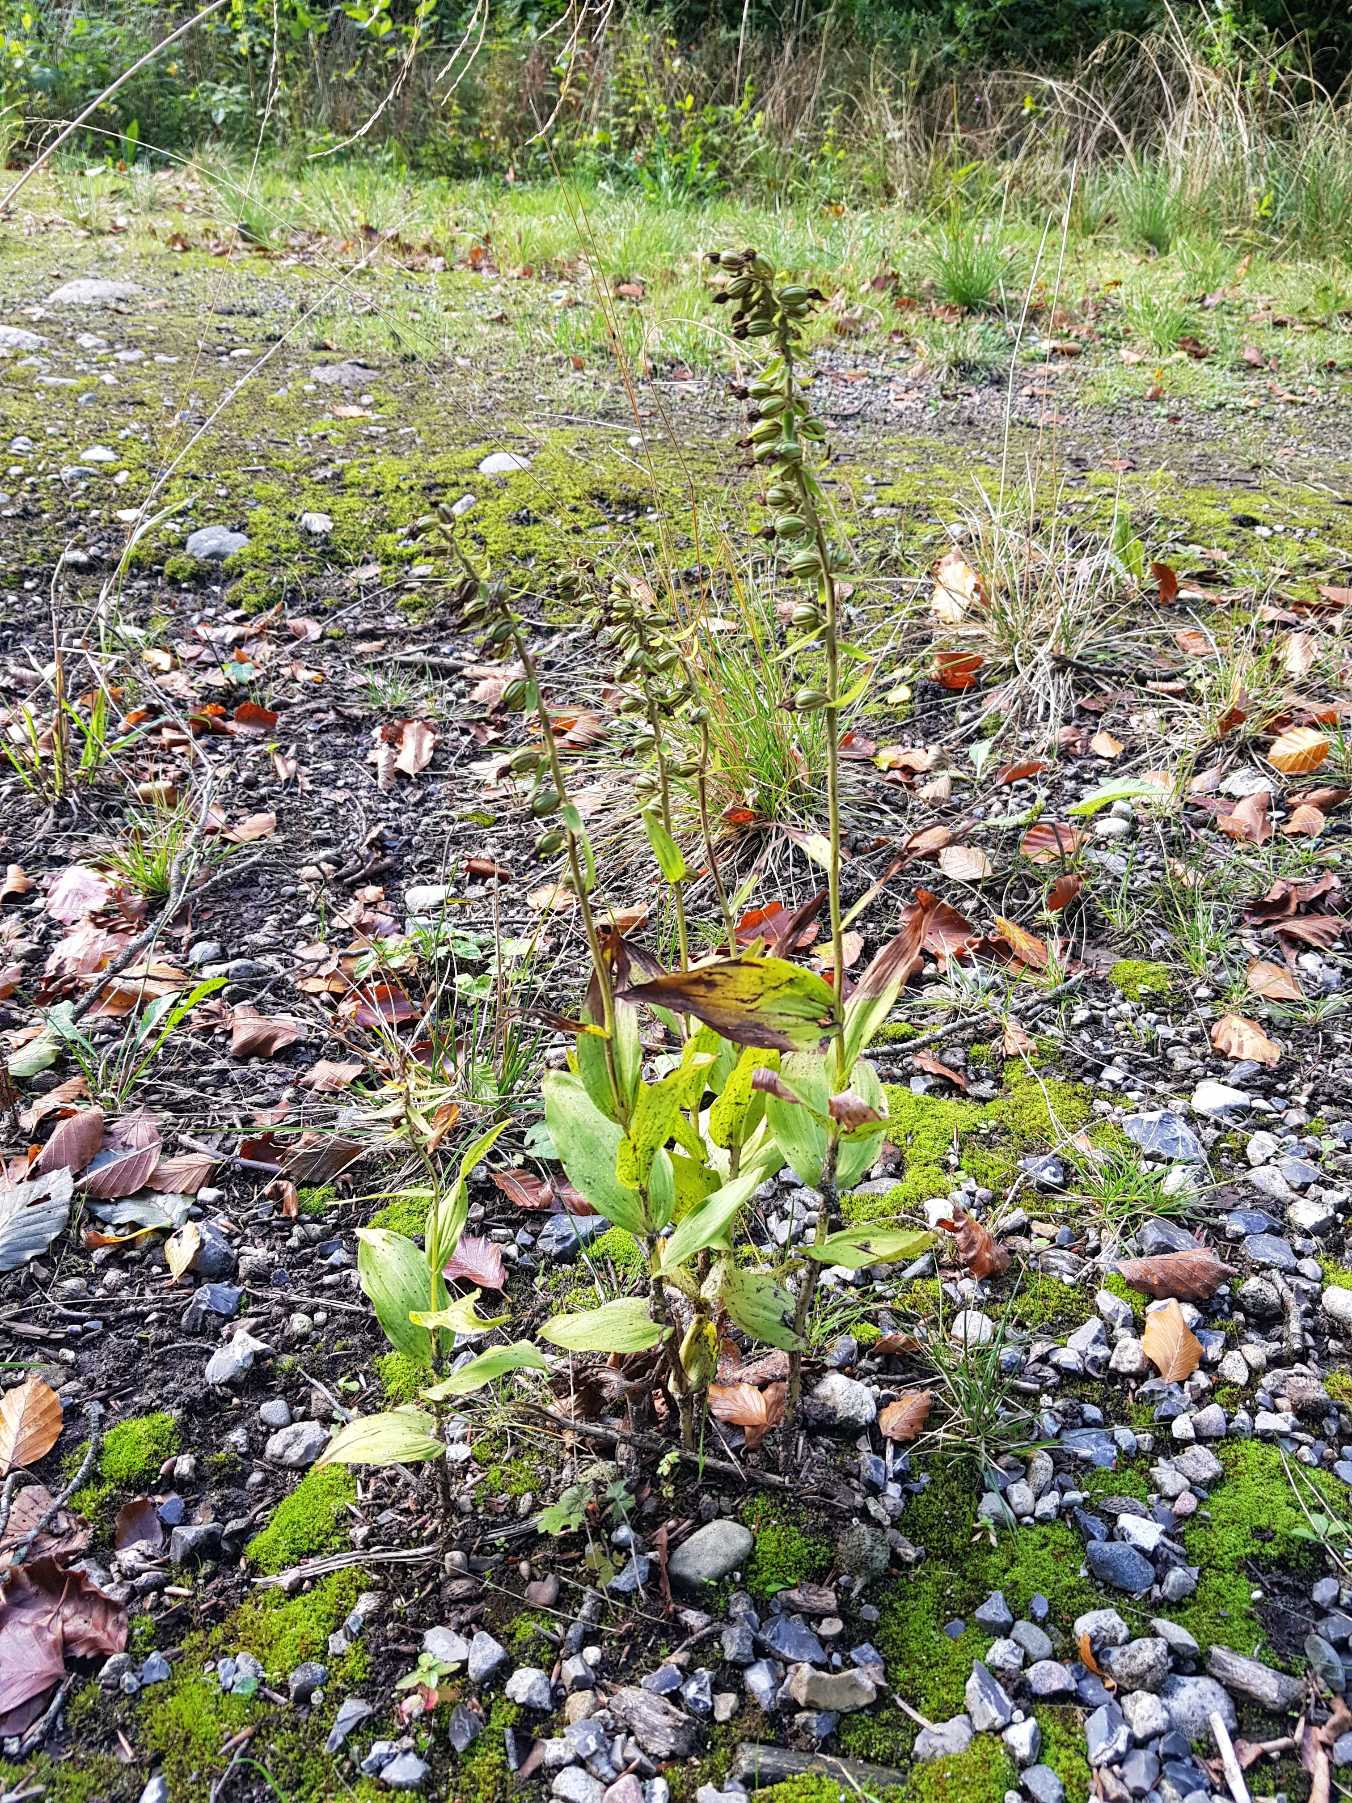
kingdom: Plantae
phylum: Tracheophyta
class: Liliopsida
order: Asparagales
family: Orchidaceae
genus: Epipactis
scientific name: Epipactis helleborine
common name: Skov-hullæbe
